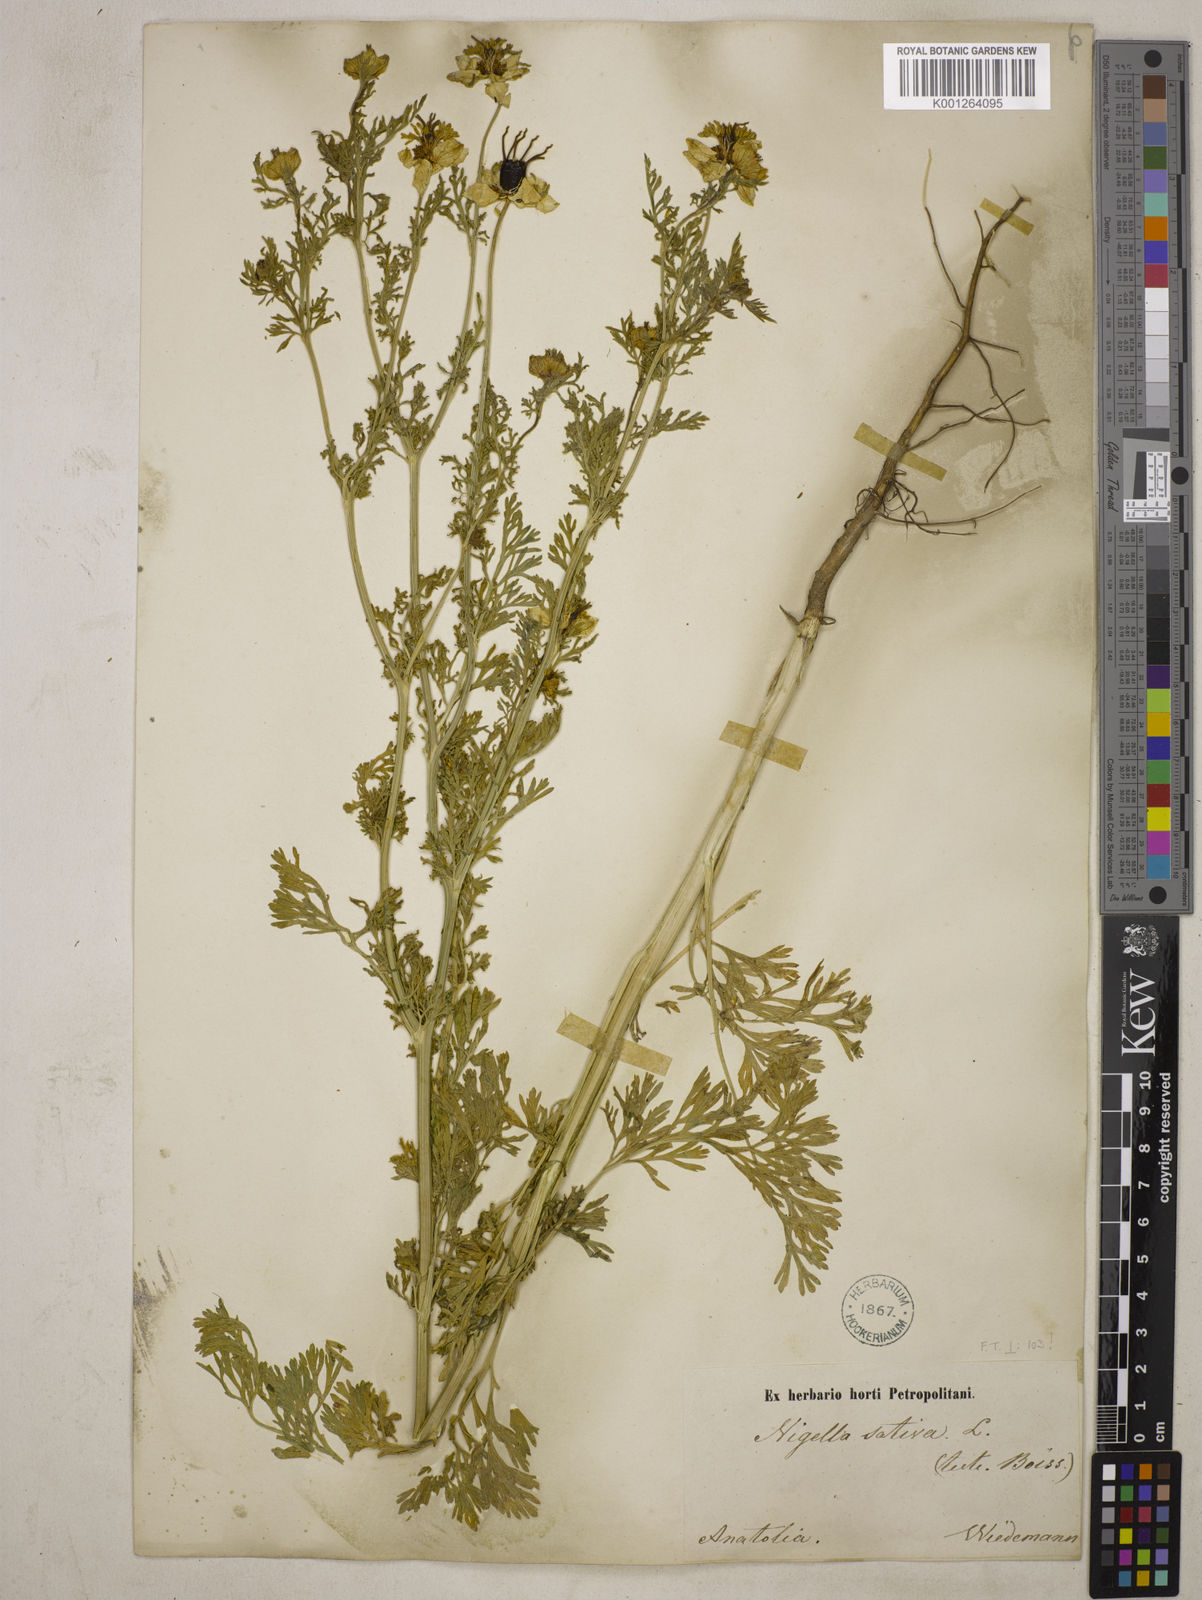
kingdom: Plantae
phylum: Tracheophyta
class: Magnoliopsida
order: Ranunculales
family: Ranunculaceae
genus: Nigella
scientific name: Nigella sativa
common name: Black-cumin
